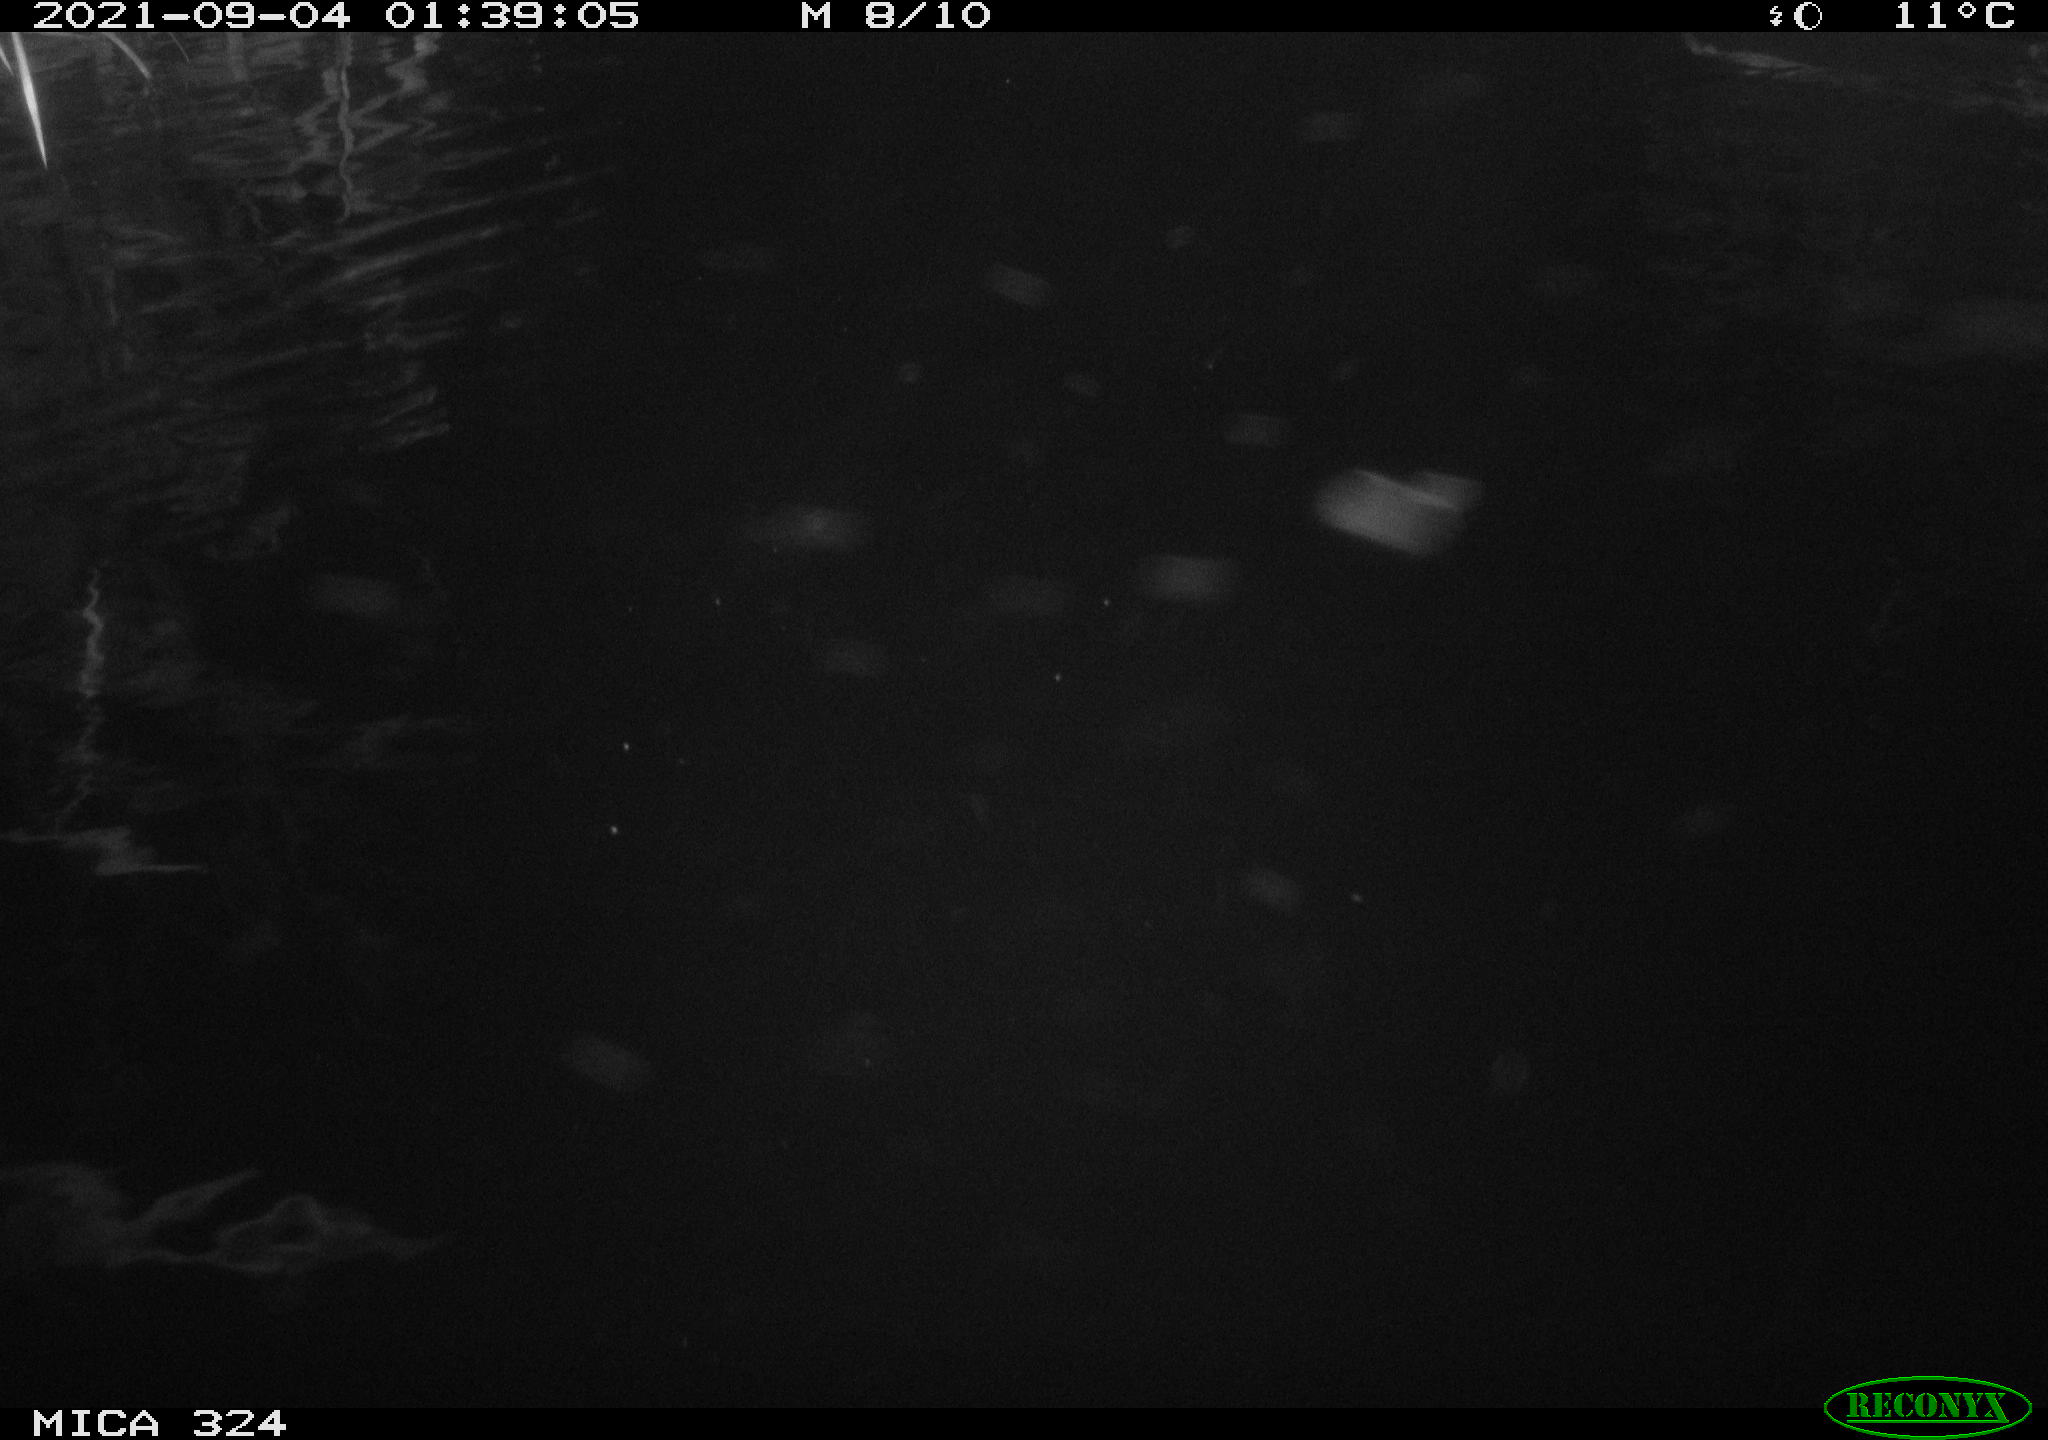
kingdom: Animalia
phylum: Chordata
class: Mammalia
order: Rodentia
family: Cricetidae
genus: Ondatra
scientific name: Ondatra zibethicus
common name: Muskrat
